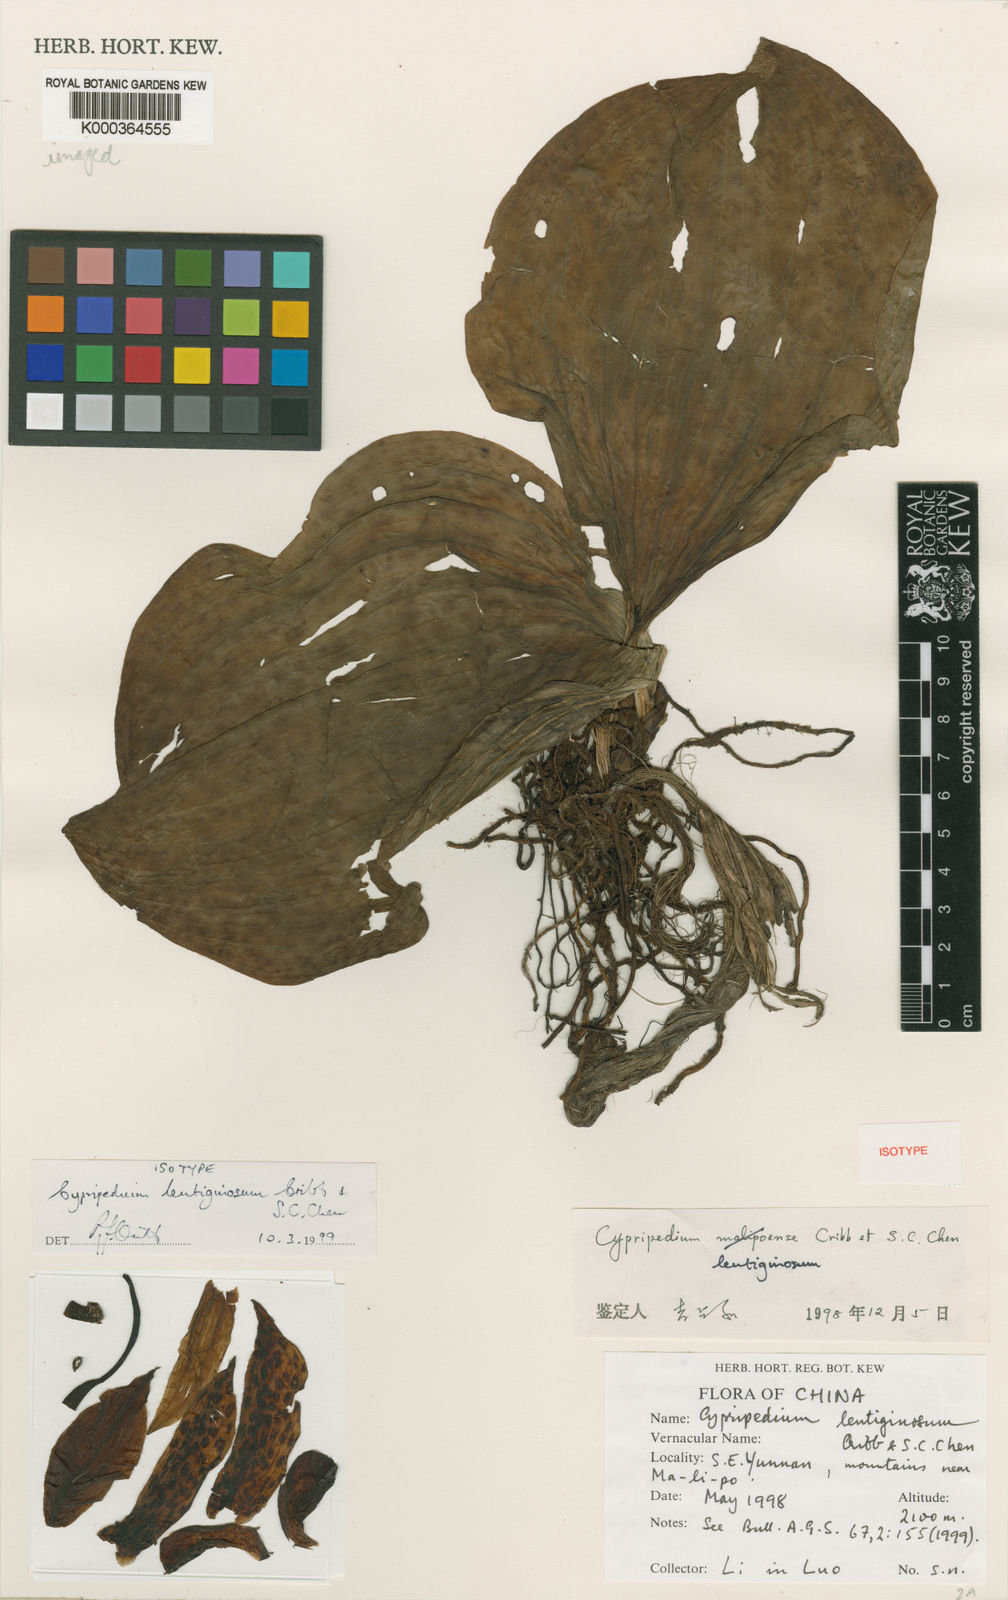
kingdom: Plantae
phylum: Tracheophyta
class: Liliopsida
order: Asparagales
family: Orchidaceae
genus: Cypripedium
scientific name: Cypripedium lentiginosum
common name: Chang ban shao lan
